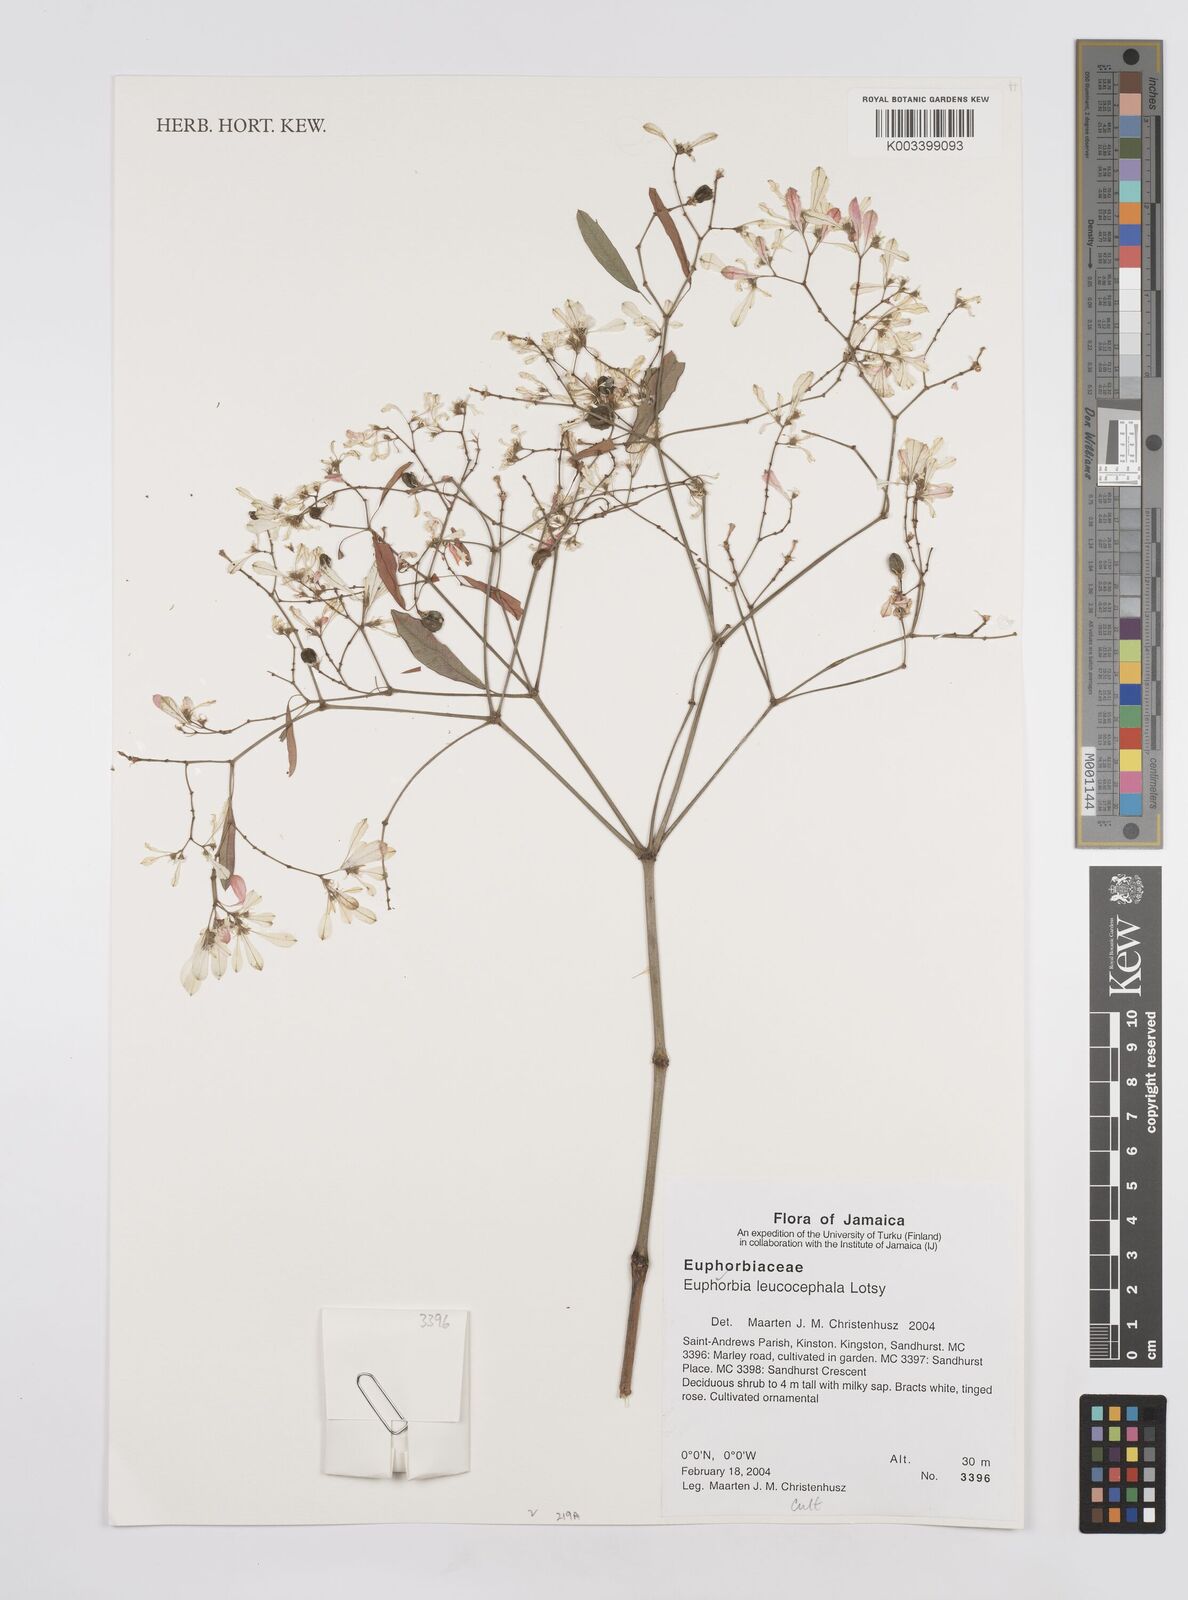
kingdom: Plantae
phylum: Tracheophyta
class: Magnoliopsida
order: Malpighiales
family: Euphorbiaceae
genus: Euphorbia
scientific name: Euphorbia leucocephala
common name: Pascuita
